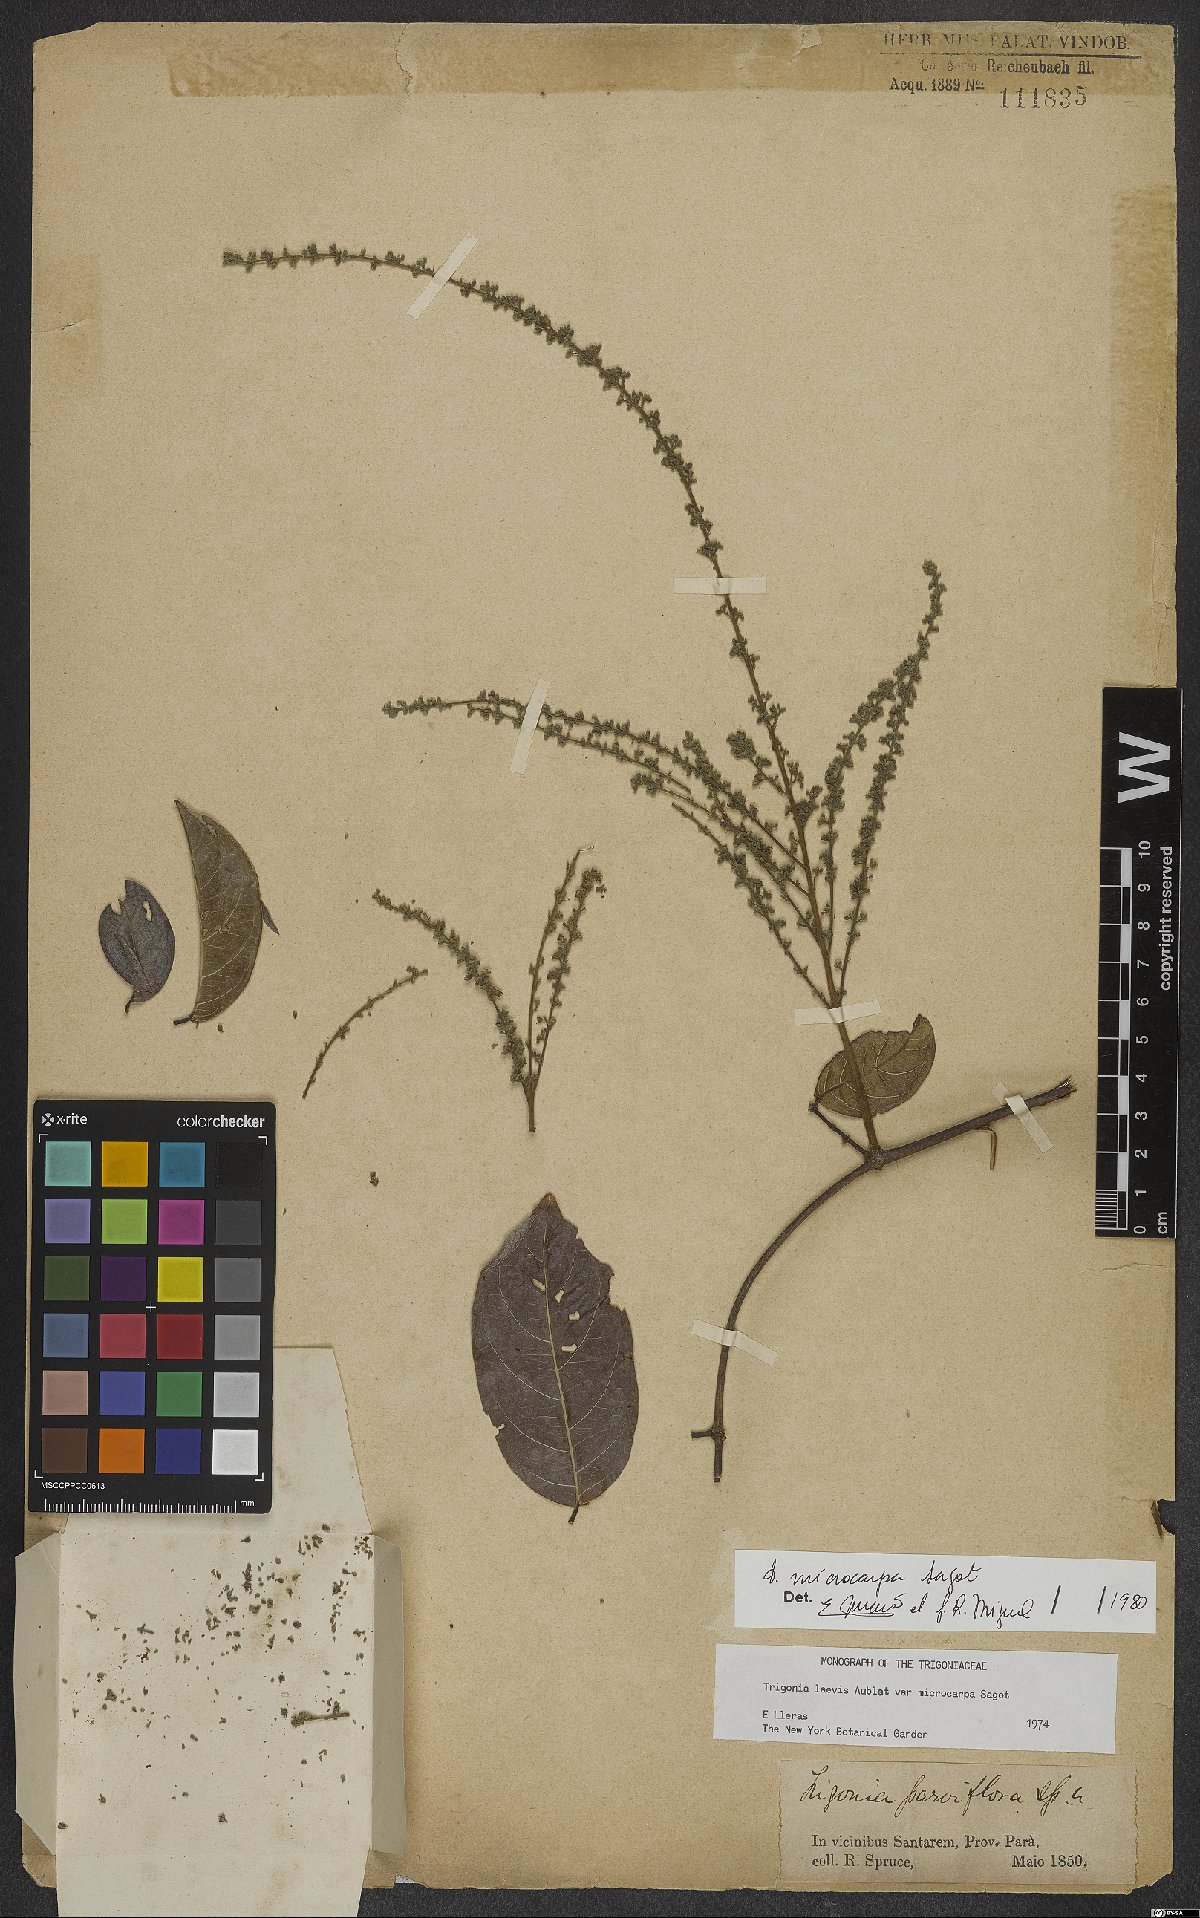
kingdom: Plantae
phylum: Tracheophyta
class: Magnoliopsida
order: Malpighiales
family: Trigoniaceae
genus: Trigonia
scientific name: Trigonia microcarpa
